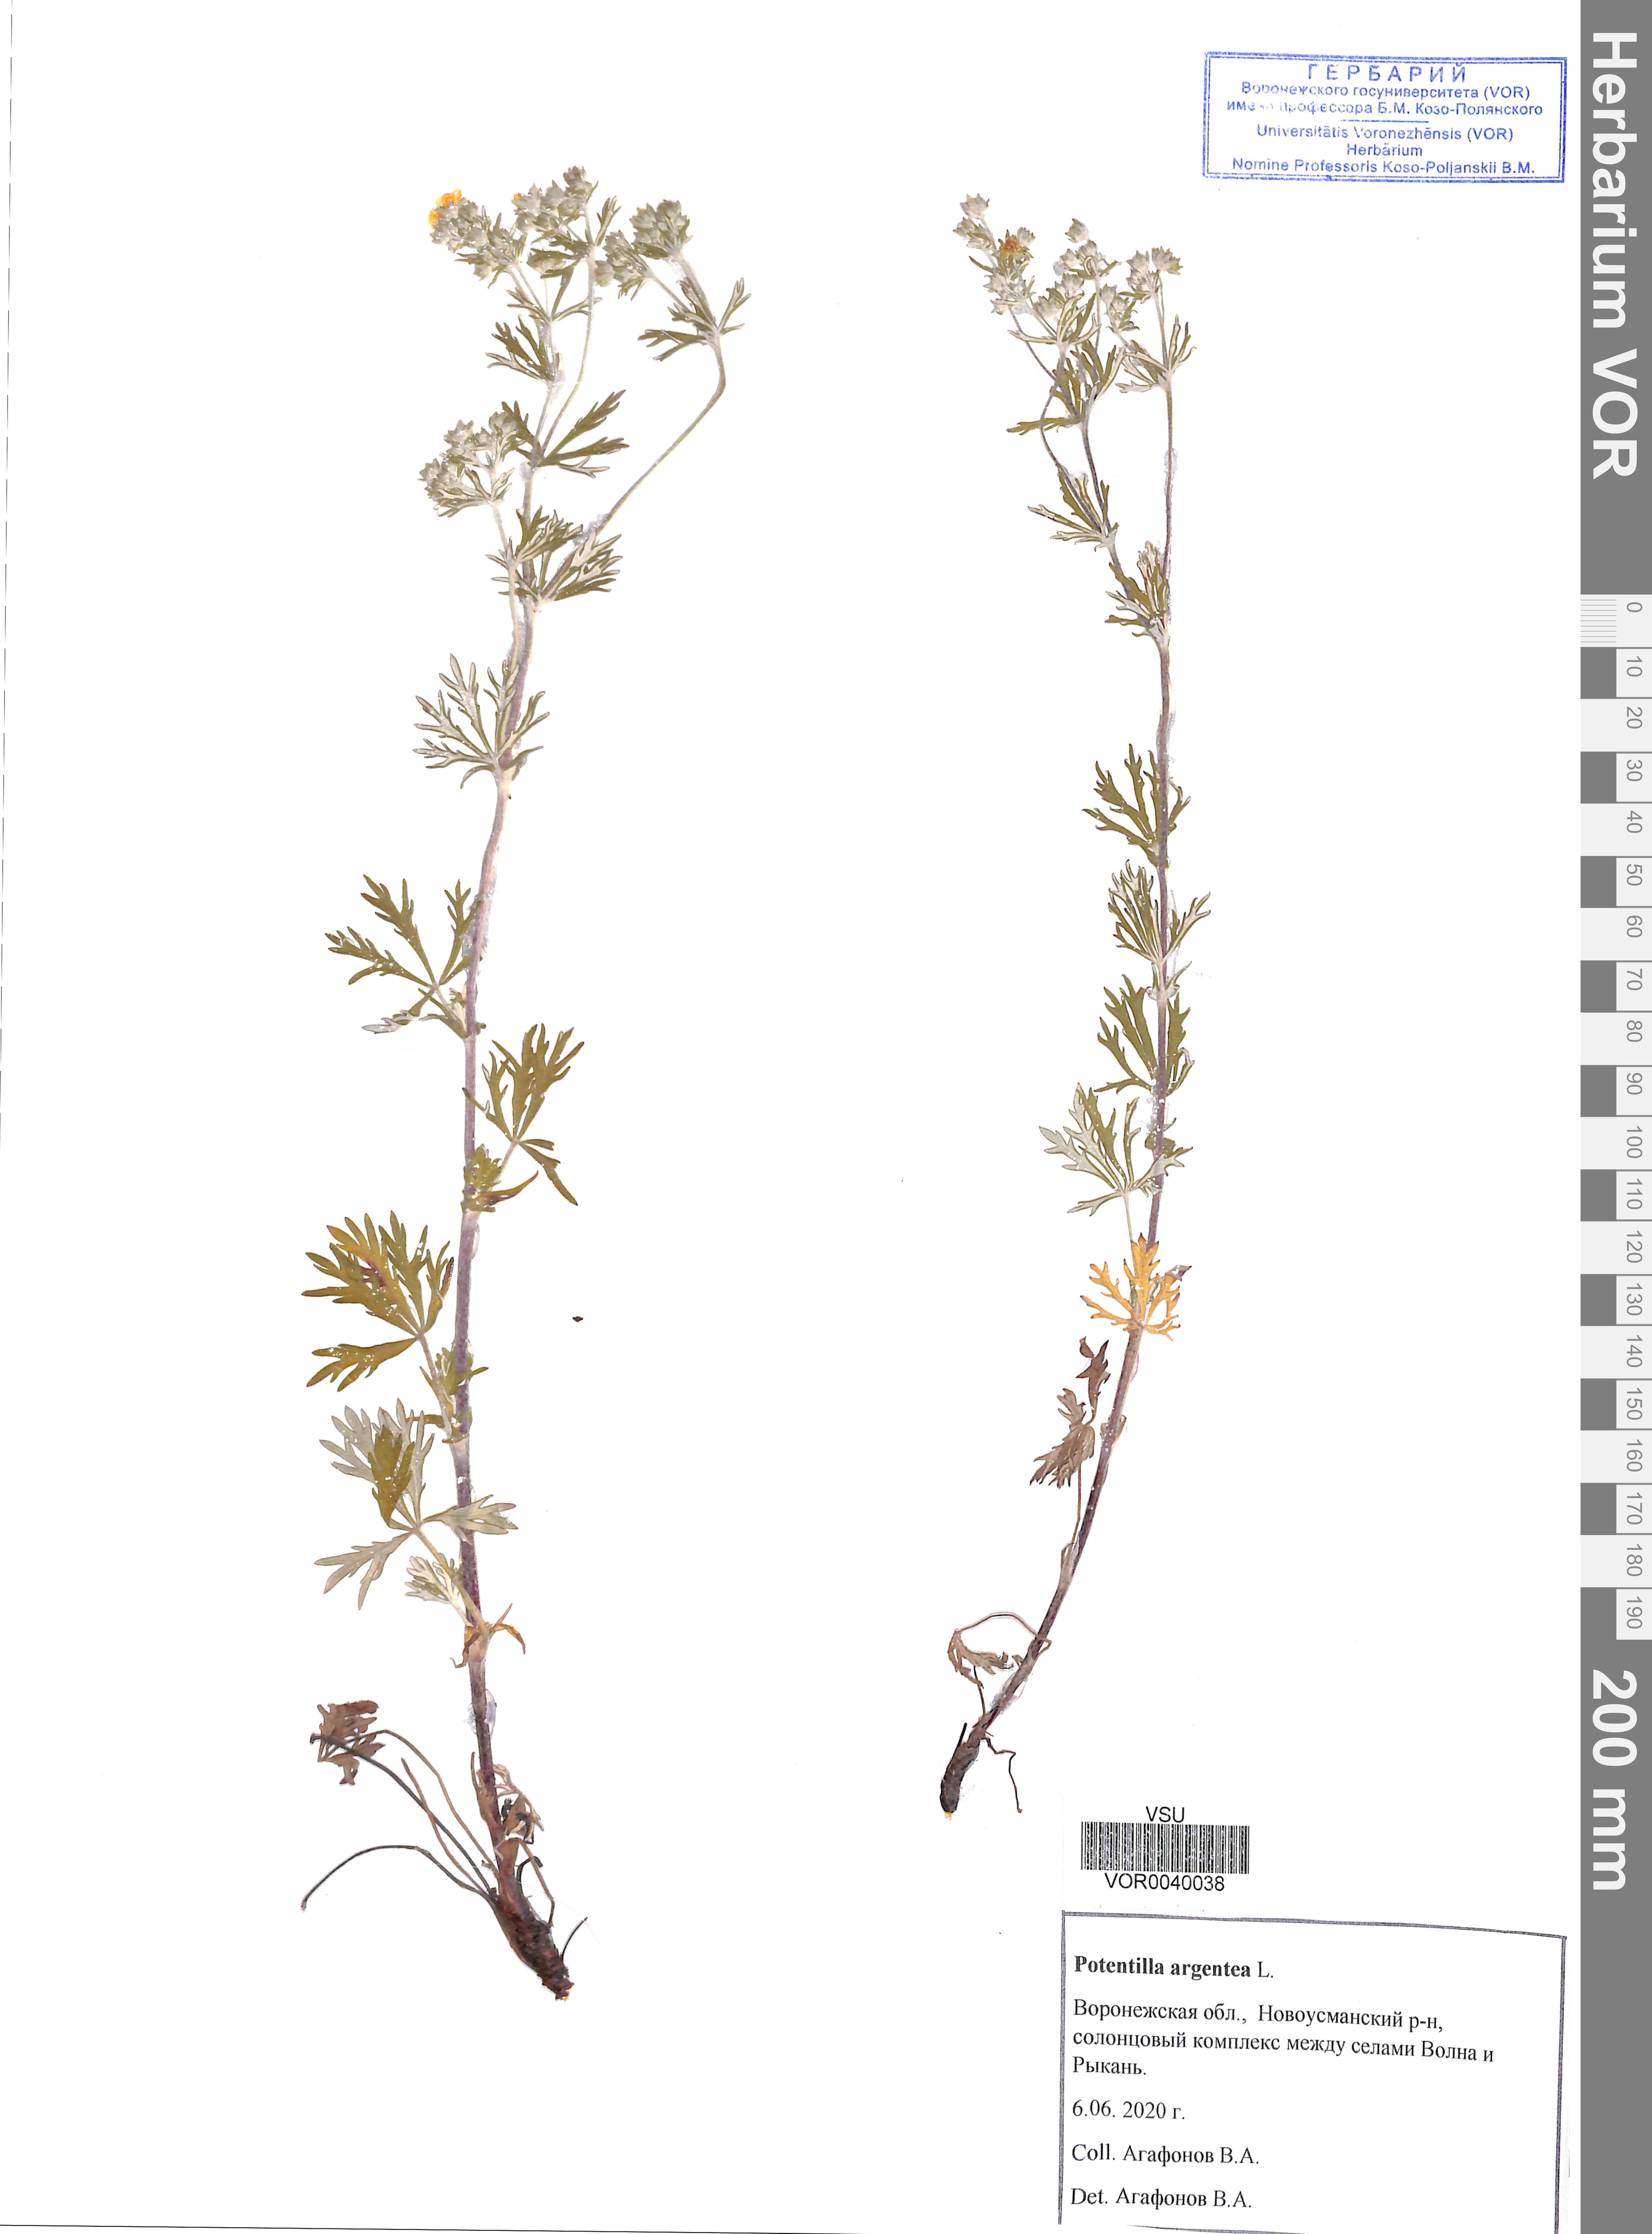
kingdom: Plantae
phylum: Tracheophyta
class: Magnoliopsida
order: Rosales
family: Rosaceae
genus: Potentilla
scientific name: Potentilla argentea
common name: Hoary cinquefoil
